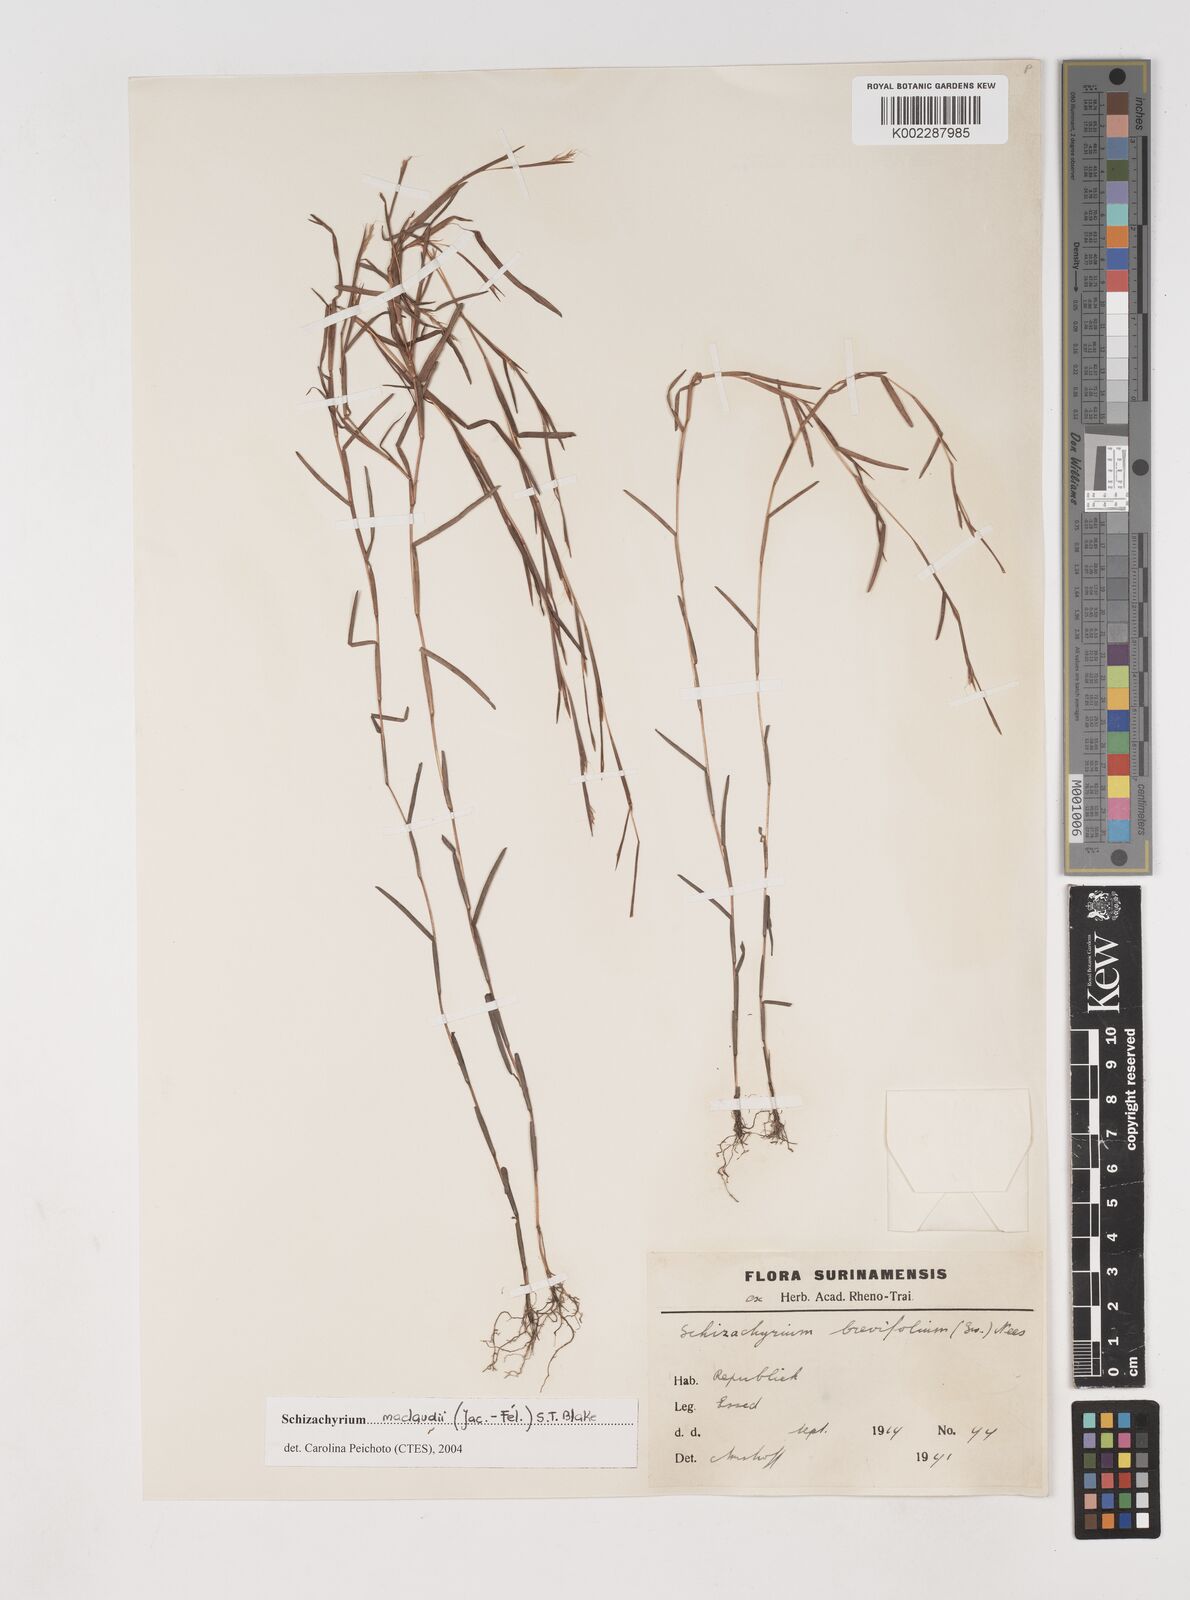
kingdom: Plantae
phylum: Tracheophyta
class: Liliopsida
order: Poales
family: Poaceae
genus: Schizachyrium
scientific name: Schizachyrium maclaudii
